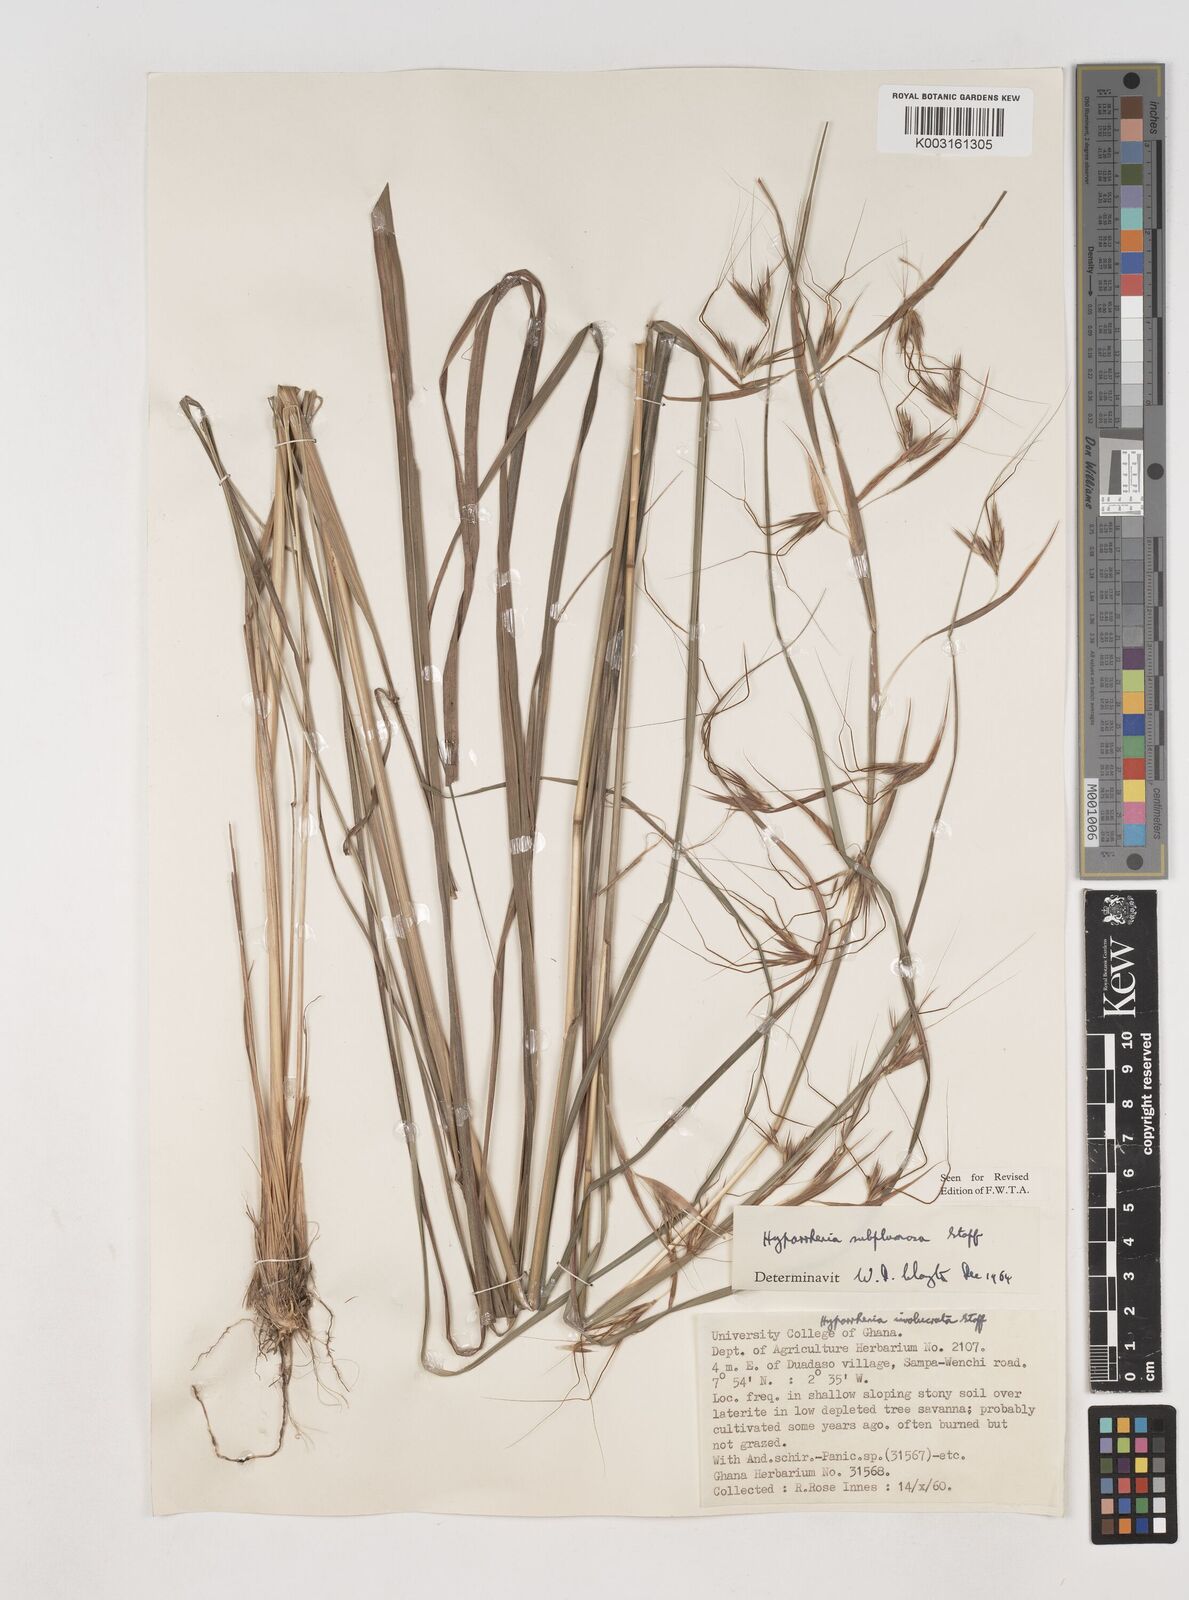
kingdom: Plantae
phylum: Tracheophyta
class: Liliopsida
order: Poales
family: Poaceae
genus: Hyparrhenia
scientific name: Hyparrhenia subplumosa
